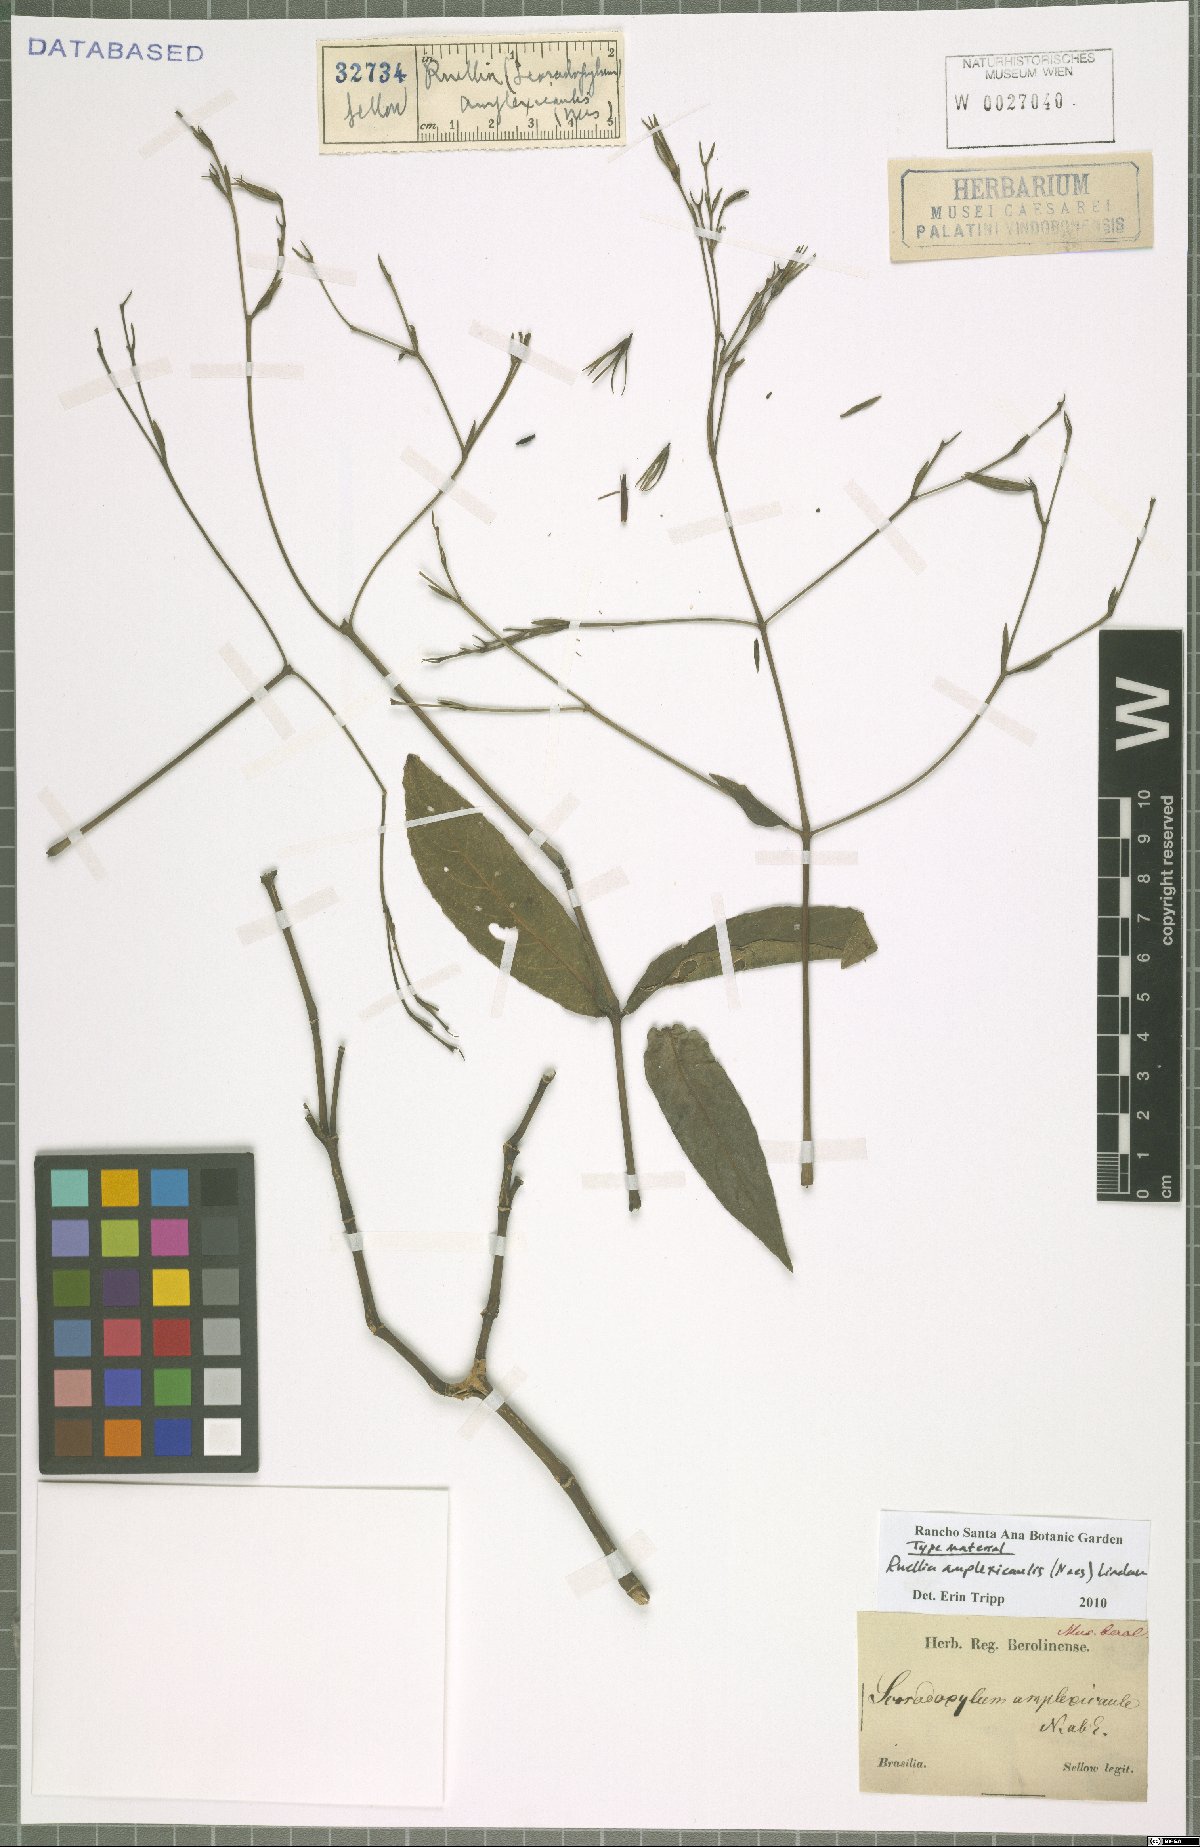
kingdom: Plantae
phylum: Tracheophyta
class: Magnoliopsida
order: Lamiales
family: Acanthaceae
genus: Ruellia
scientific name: Ruellia amplexicaulis
